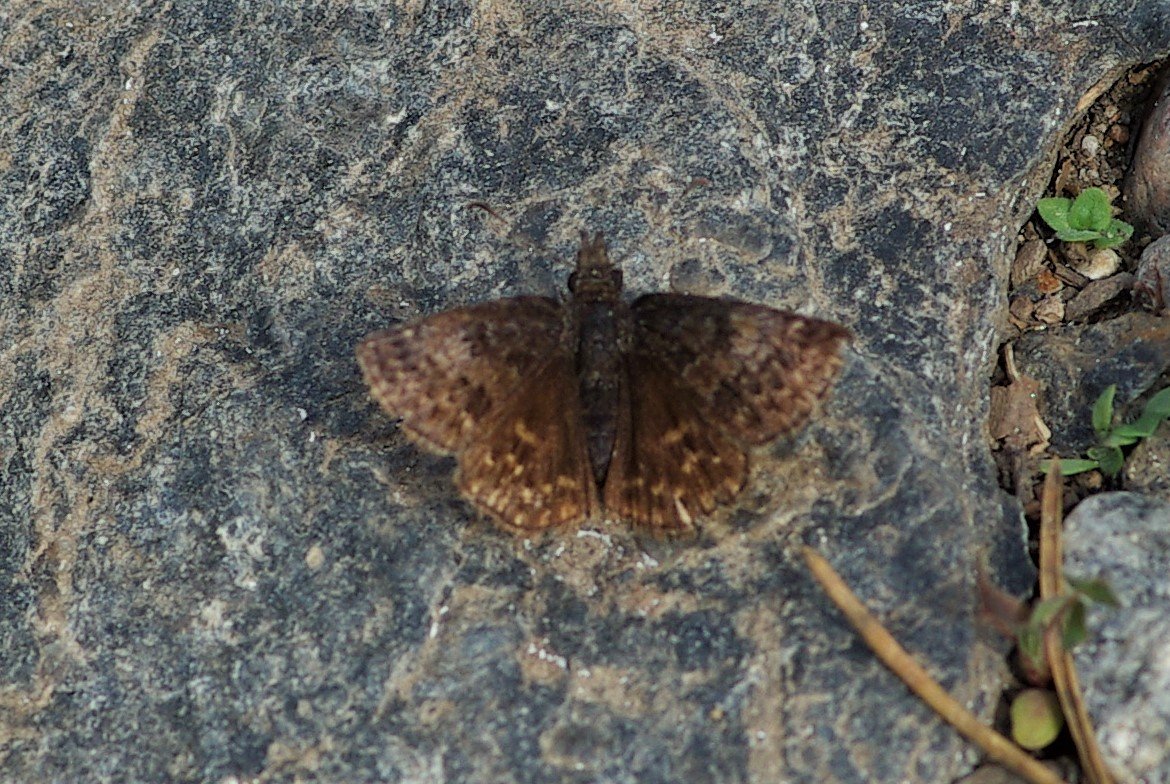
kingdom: Animalia
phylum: Arthropoda
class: Insecta
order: Lepidoptera
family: Hesperiidae
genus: Erynnis
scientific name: Erynnis icelus
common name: Dreamy Duskywing
